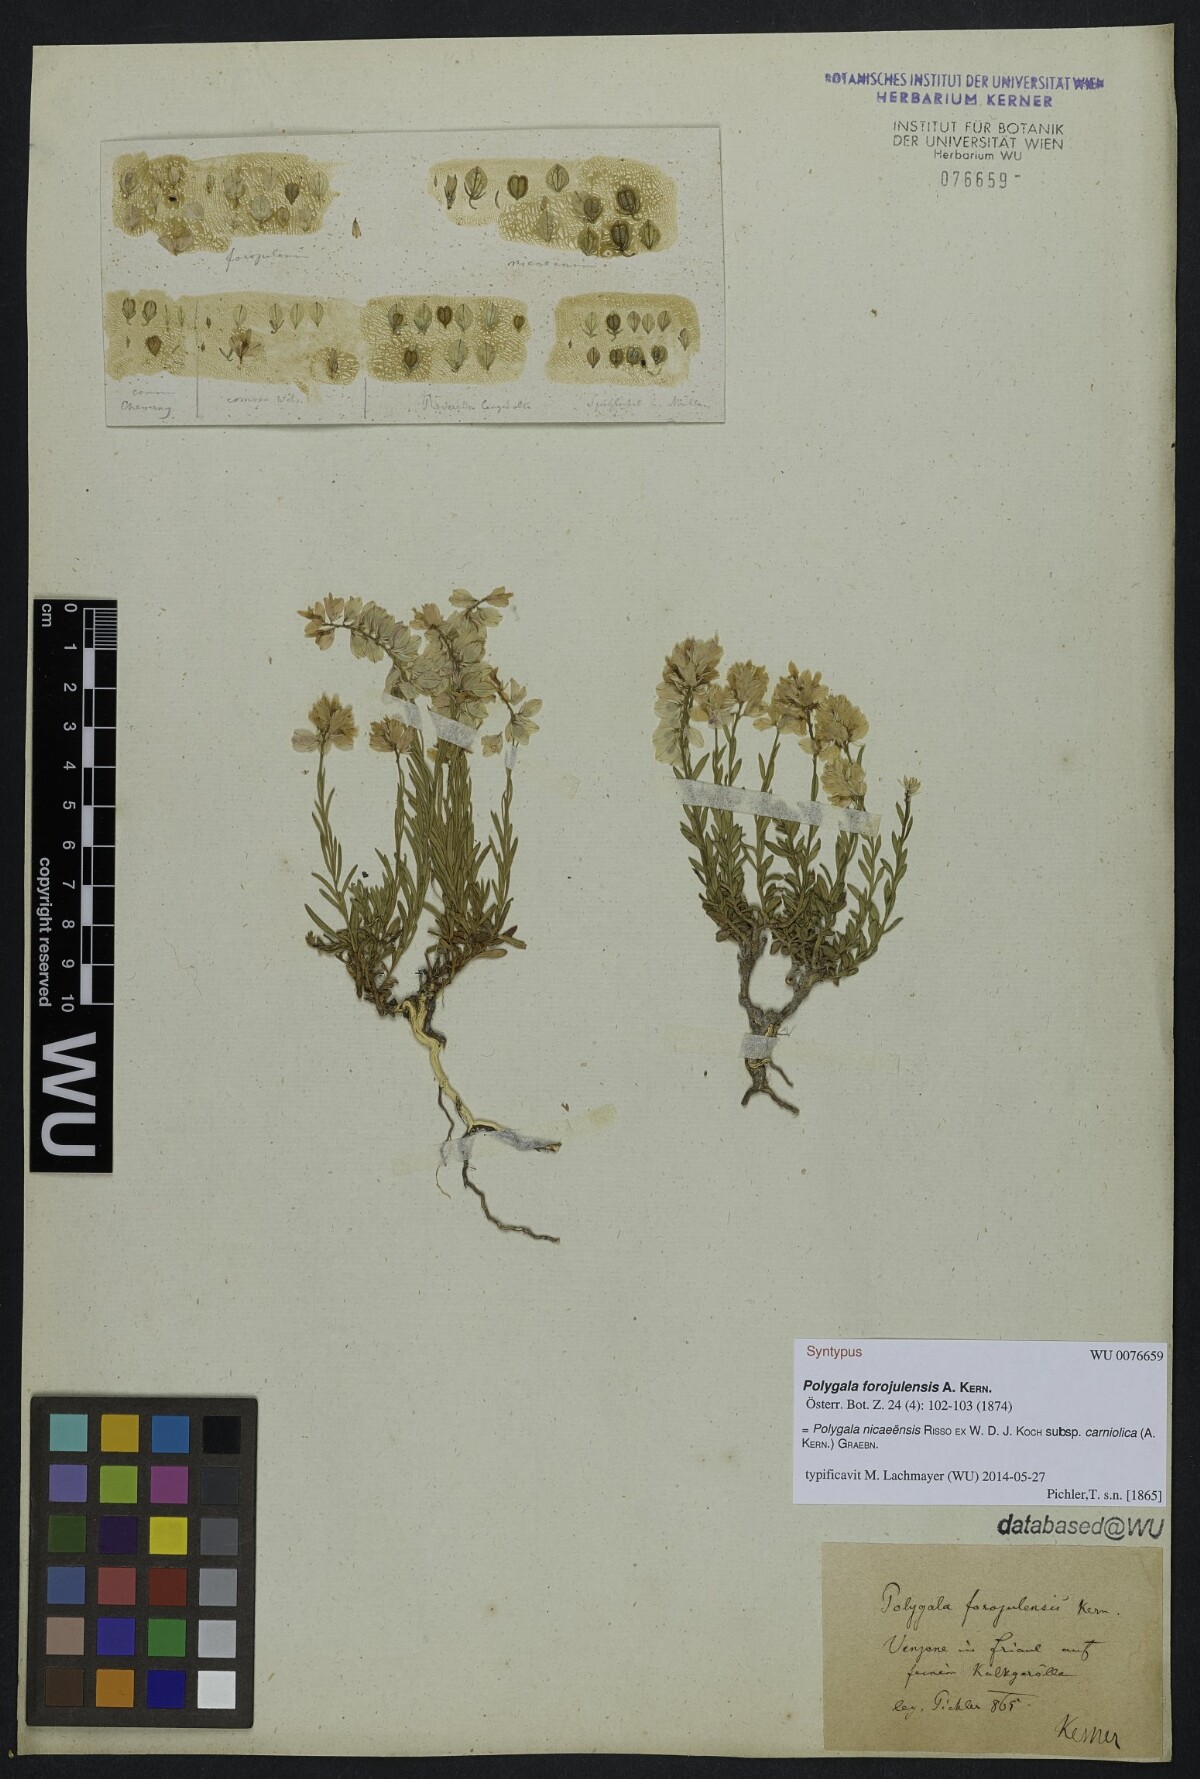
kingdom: Plantae
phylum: Tracheophyta
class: Magnoliopsida
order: Fabales
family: Polygalaceae
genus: Polygala
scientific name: Polygala forojulensis
